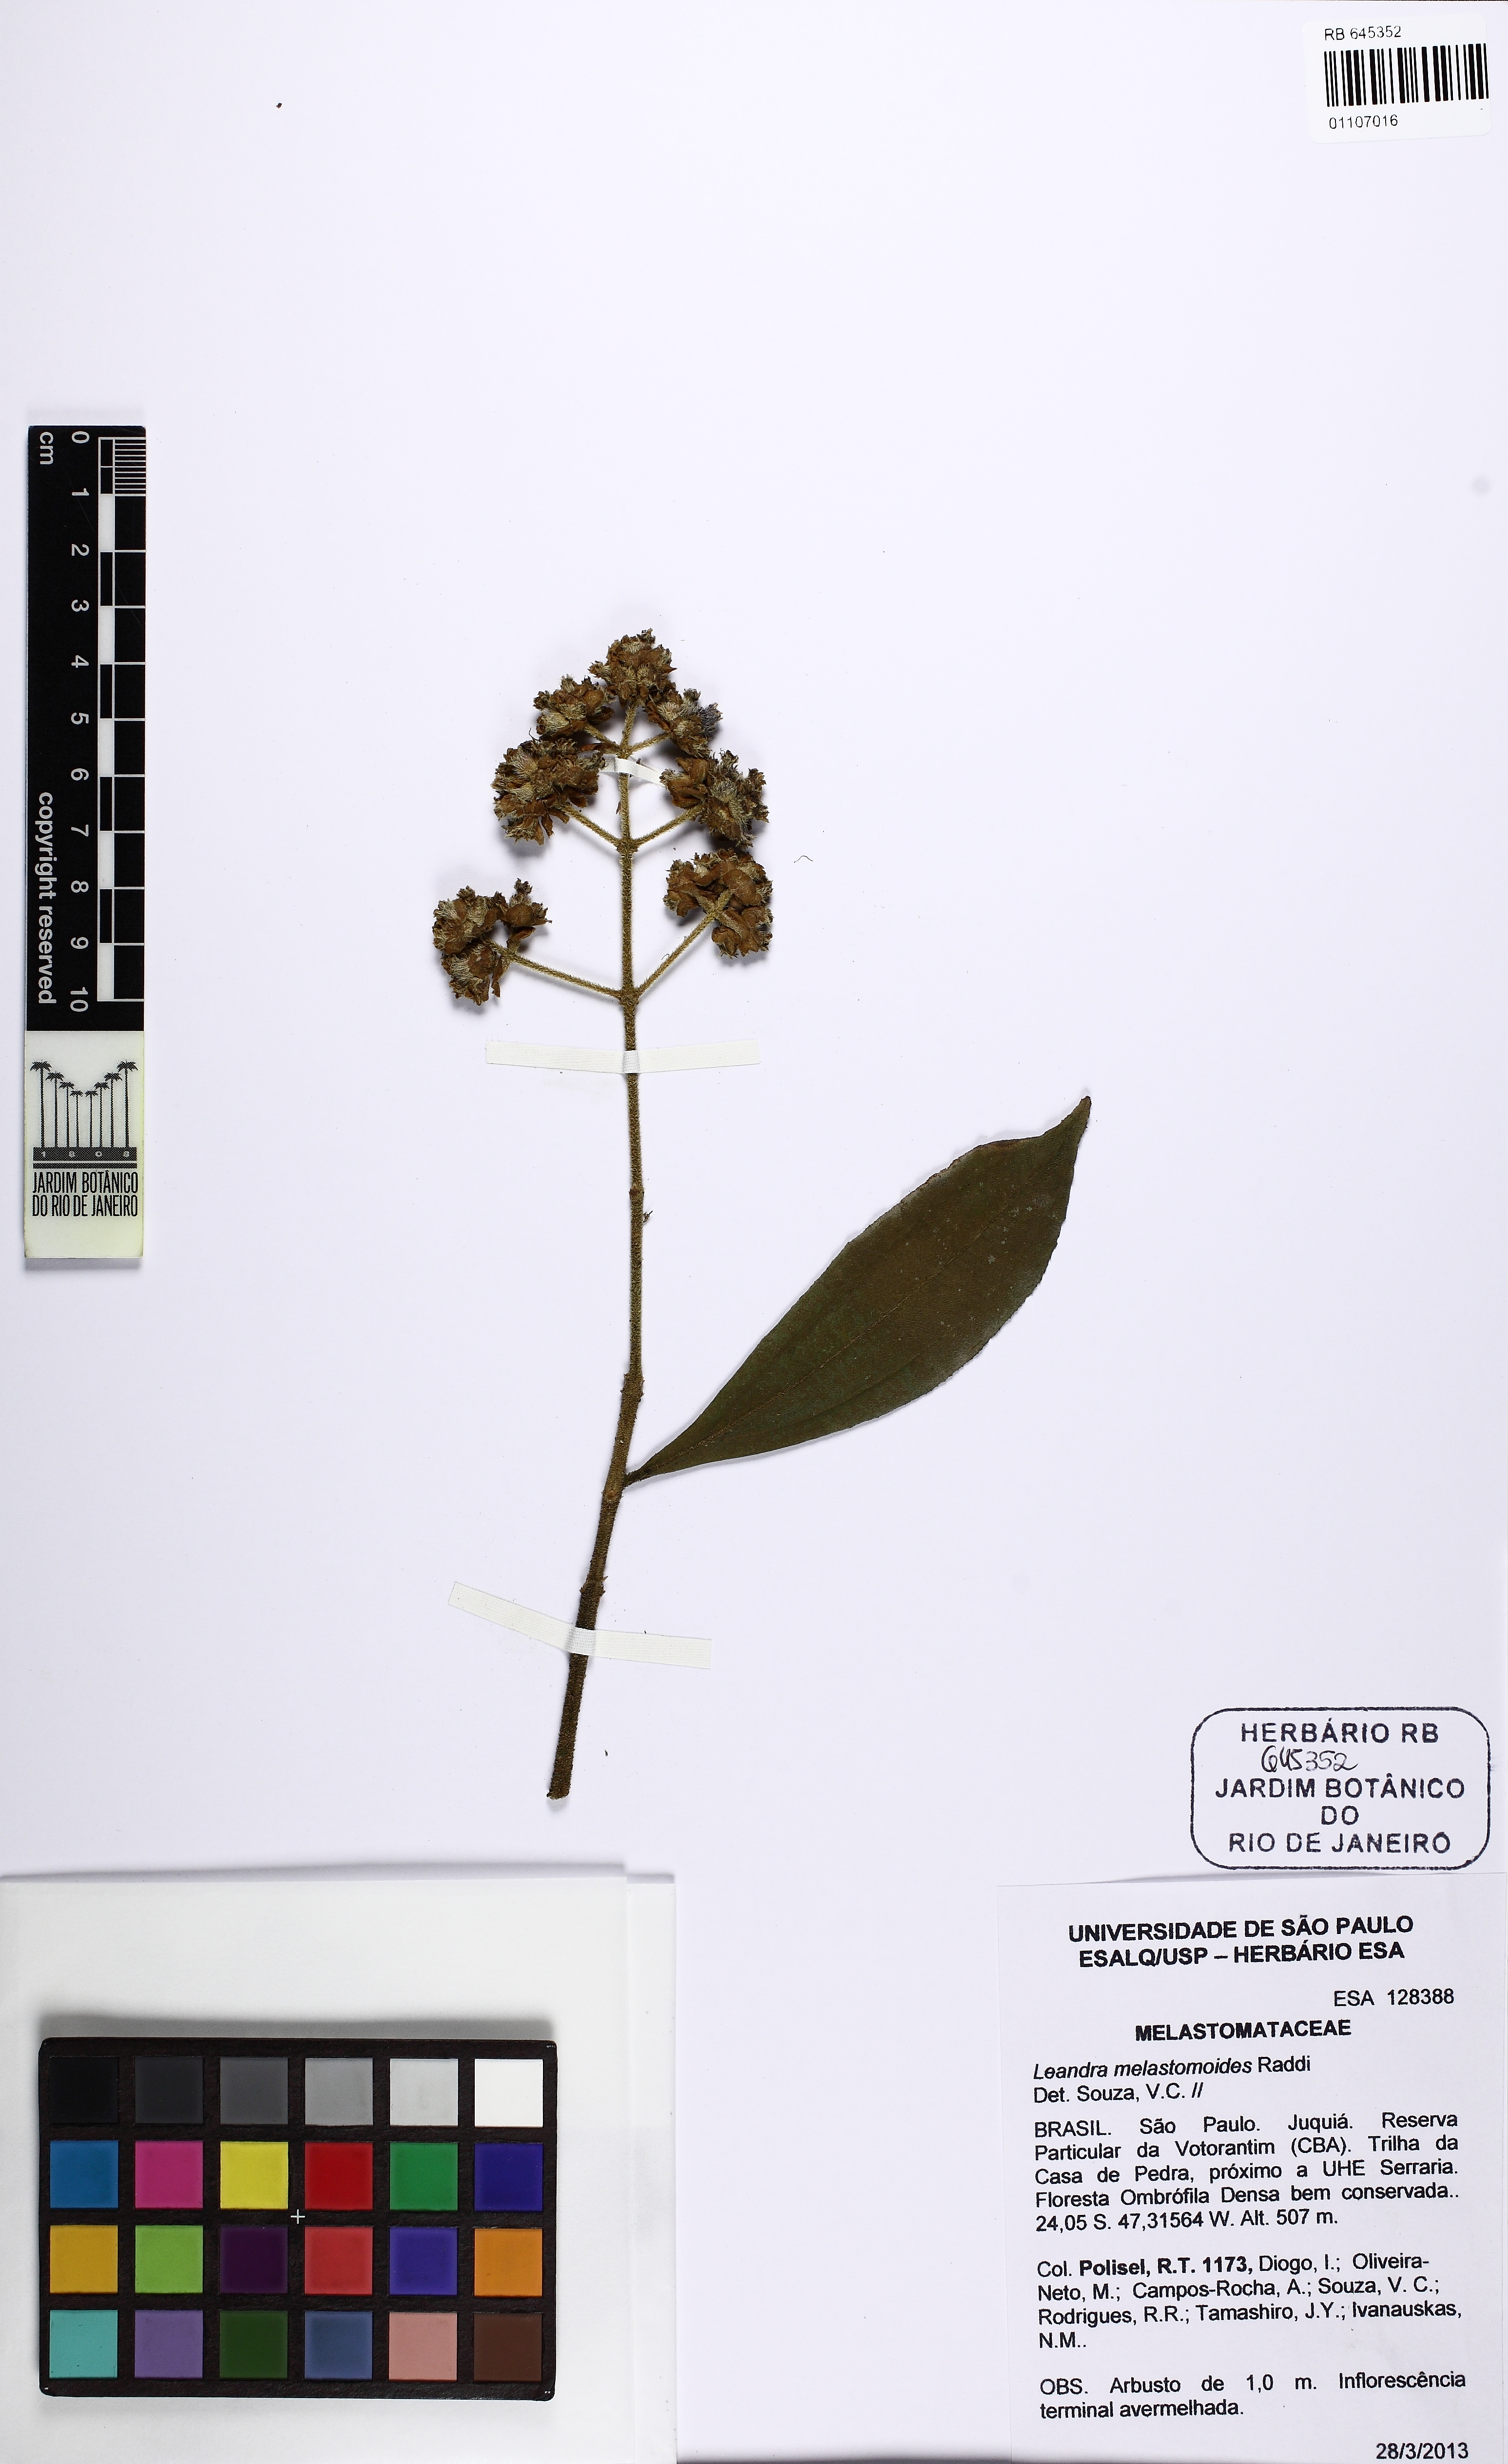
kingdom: Plantae
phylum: Tracheophyta
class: Magnoliopsida
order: Myrtales
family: Melastomataceae
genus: Miconia
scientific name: Miconia melastomoides
